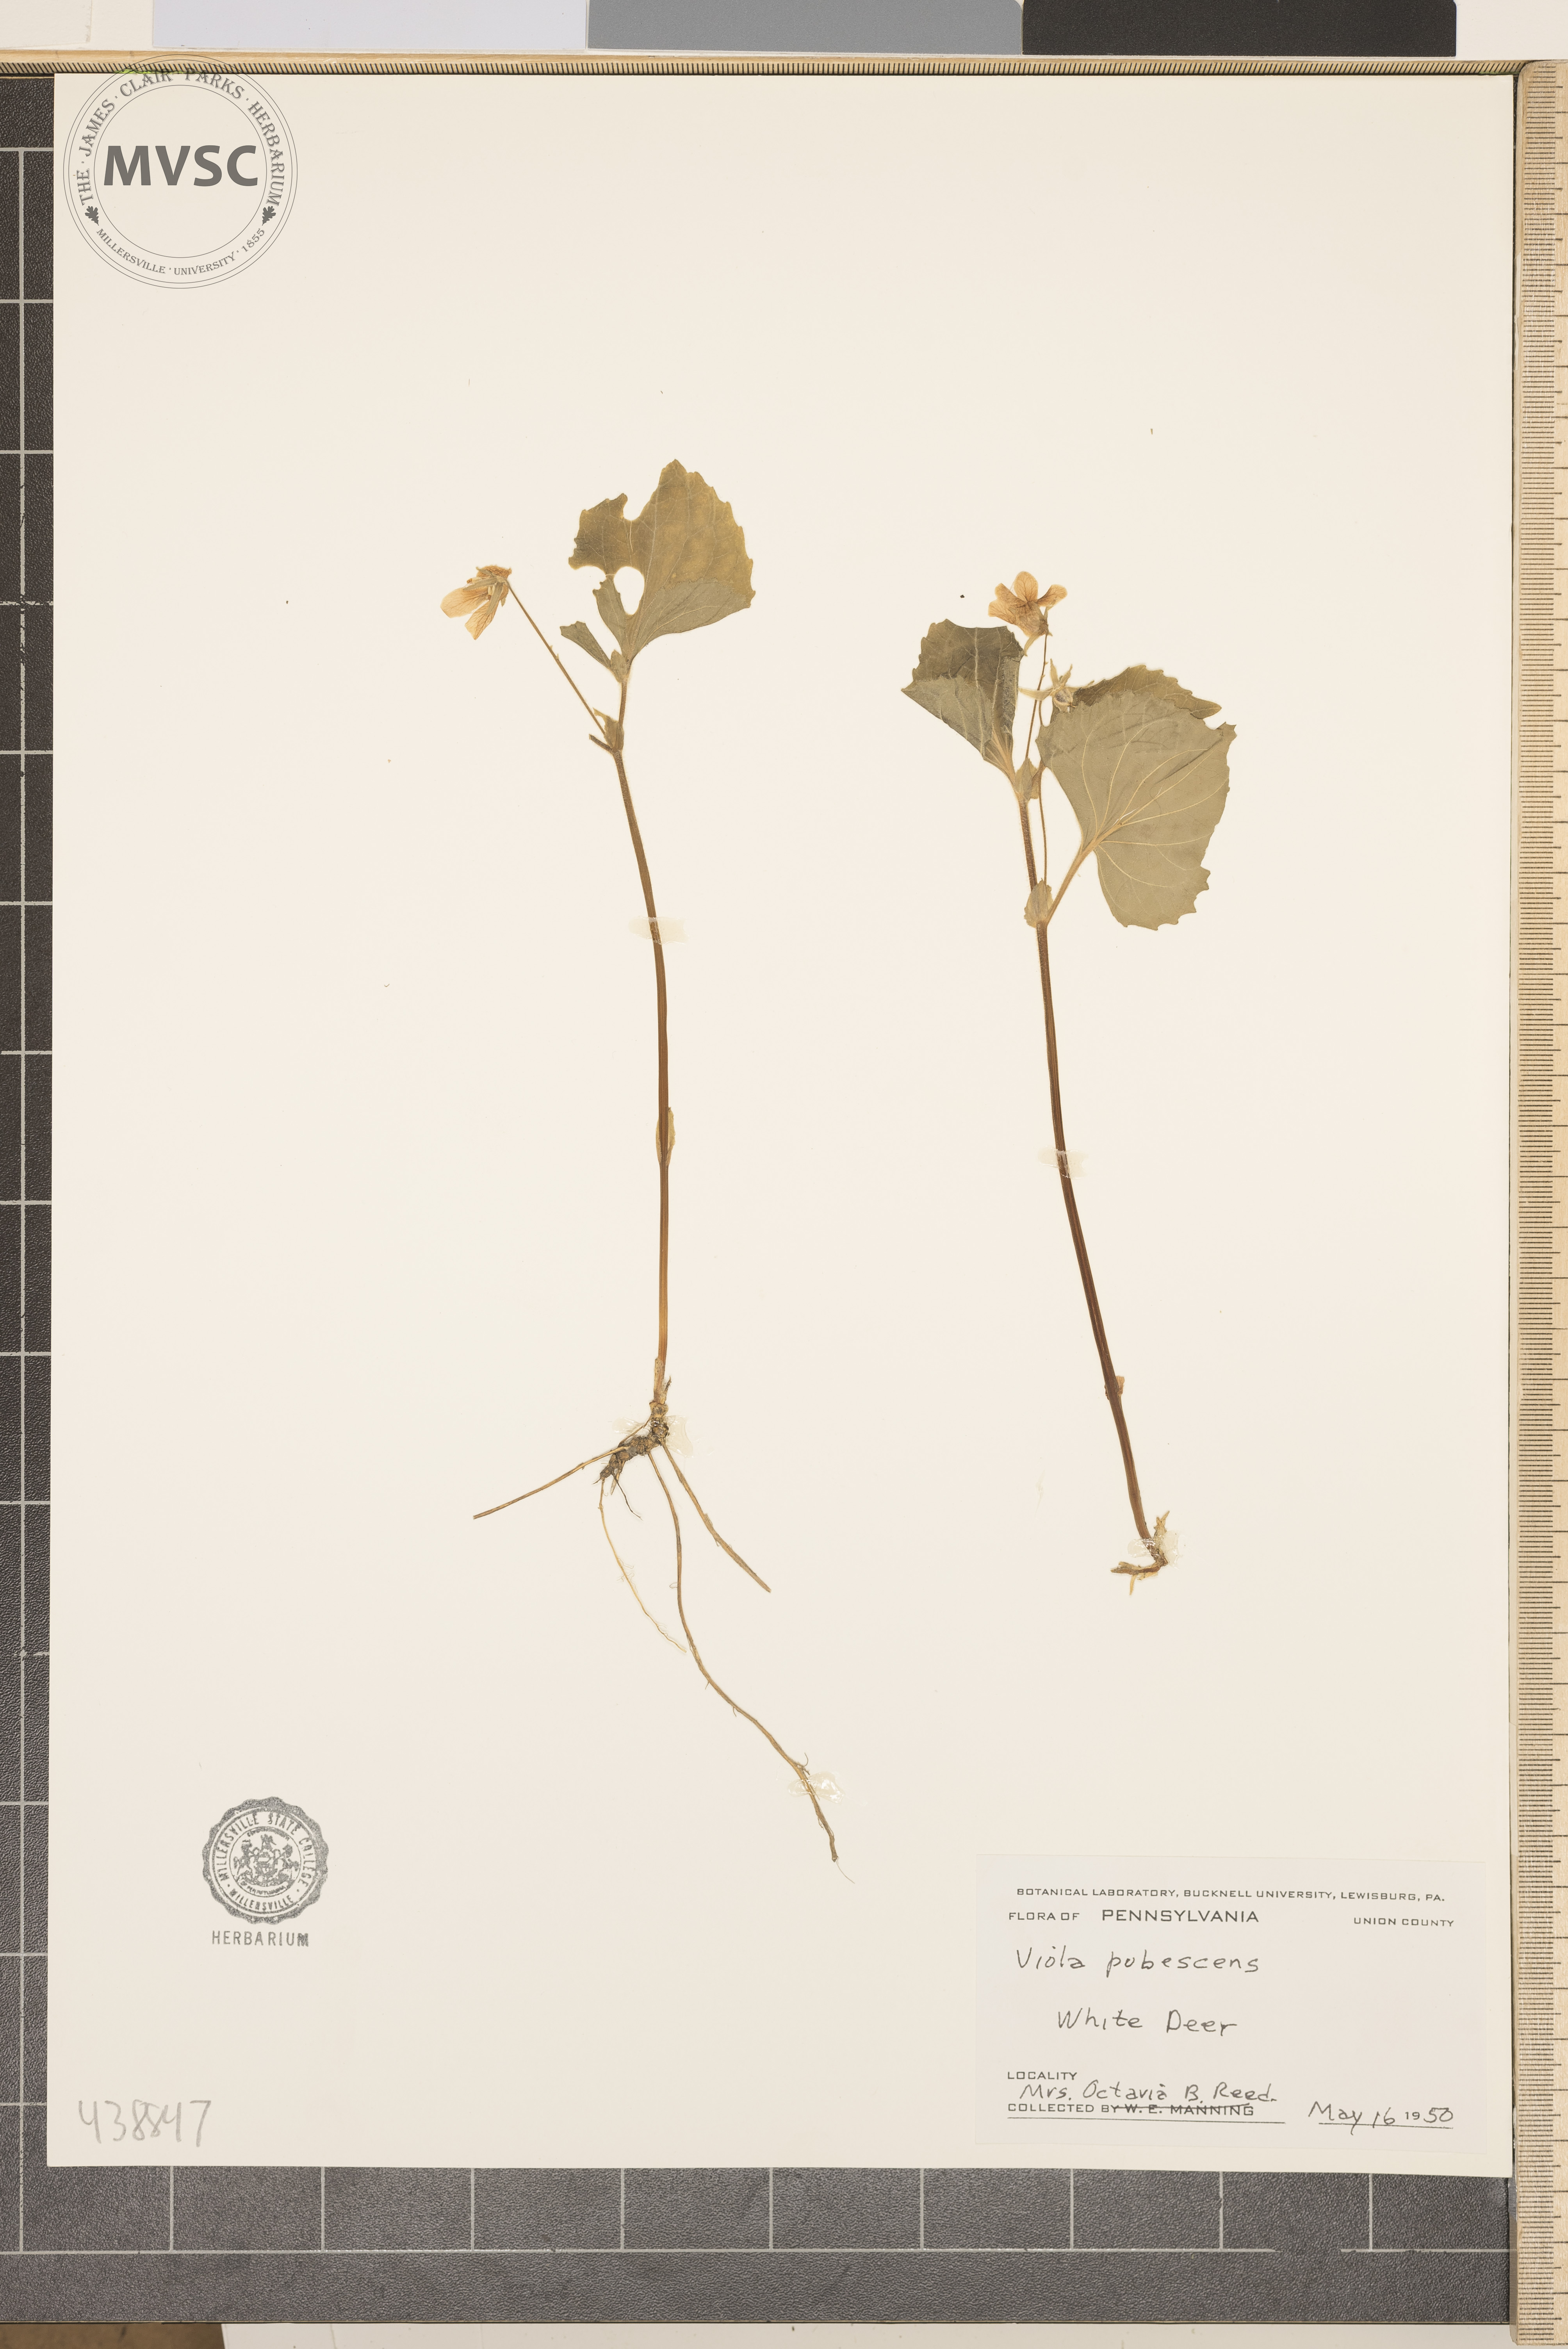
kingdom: Plantae
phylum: Tracheophyta
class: Magnoliopsida
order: Malpighiales
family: Violaceae
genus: Viola
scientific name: Viola pubescens
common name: Yellow forest violet
